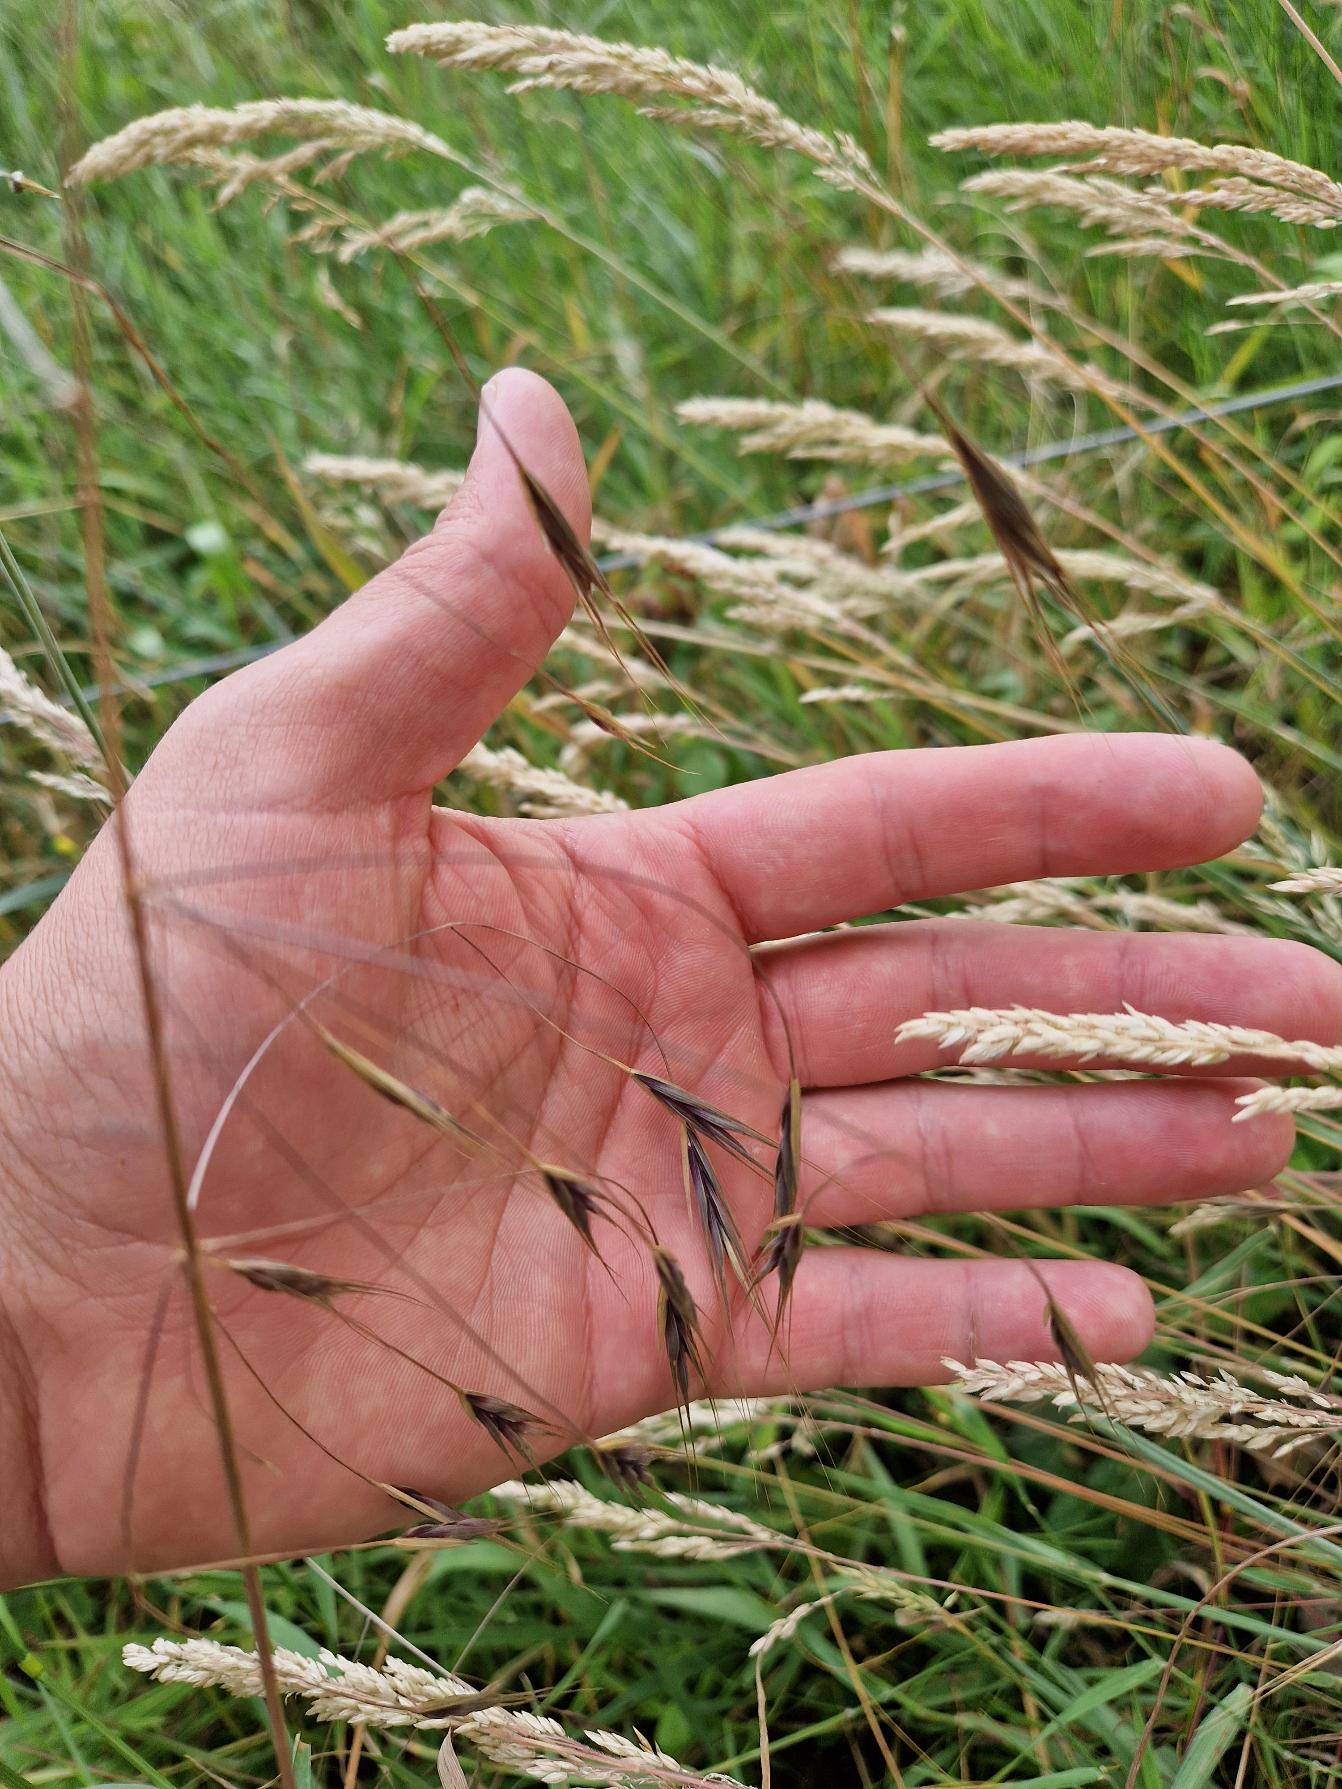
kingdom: Plantae
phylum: Tracheophyta
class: Liliopsida
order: Poales
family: Poaceae
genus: Bromus
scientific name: Bromus sterilis
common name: Gold hejre
